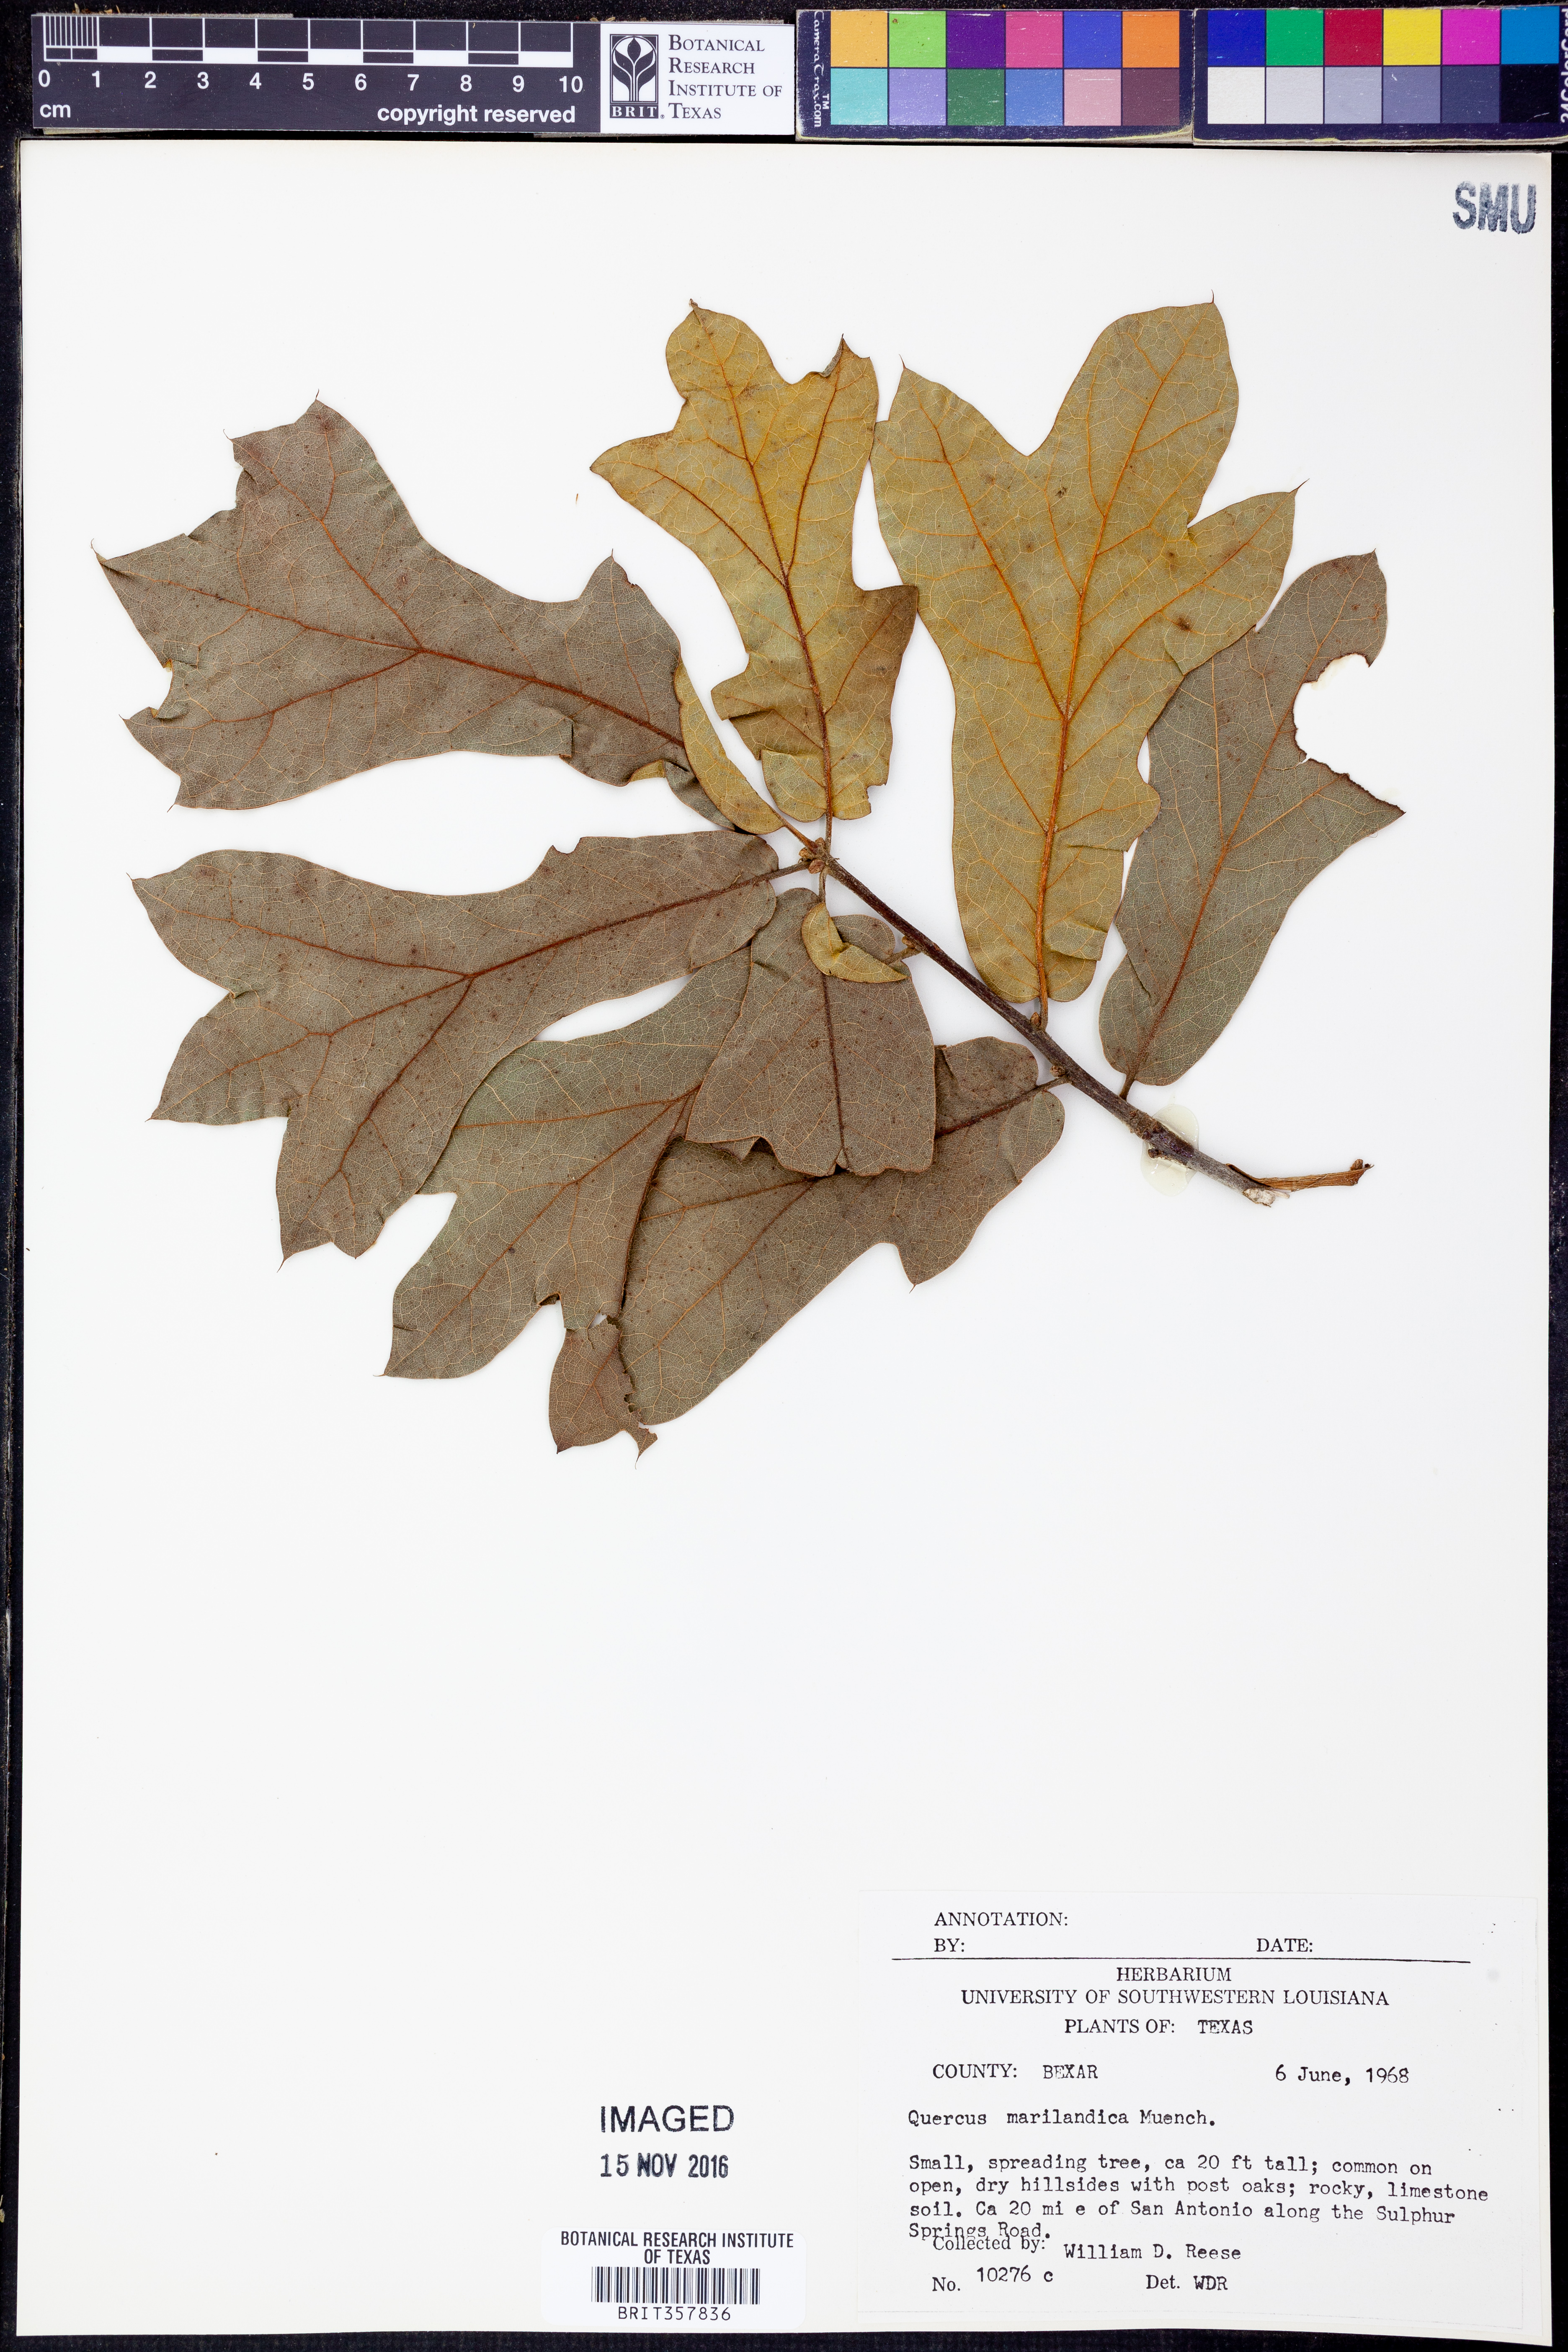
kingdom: Plantae
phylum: Tracheophyta
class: Magnoliopsida
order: Fagales
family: Fagaceae
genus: Quercus
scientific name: Quercus marilandica
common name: Blackjack oak
